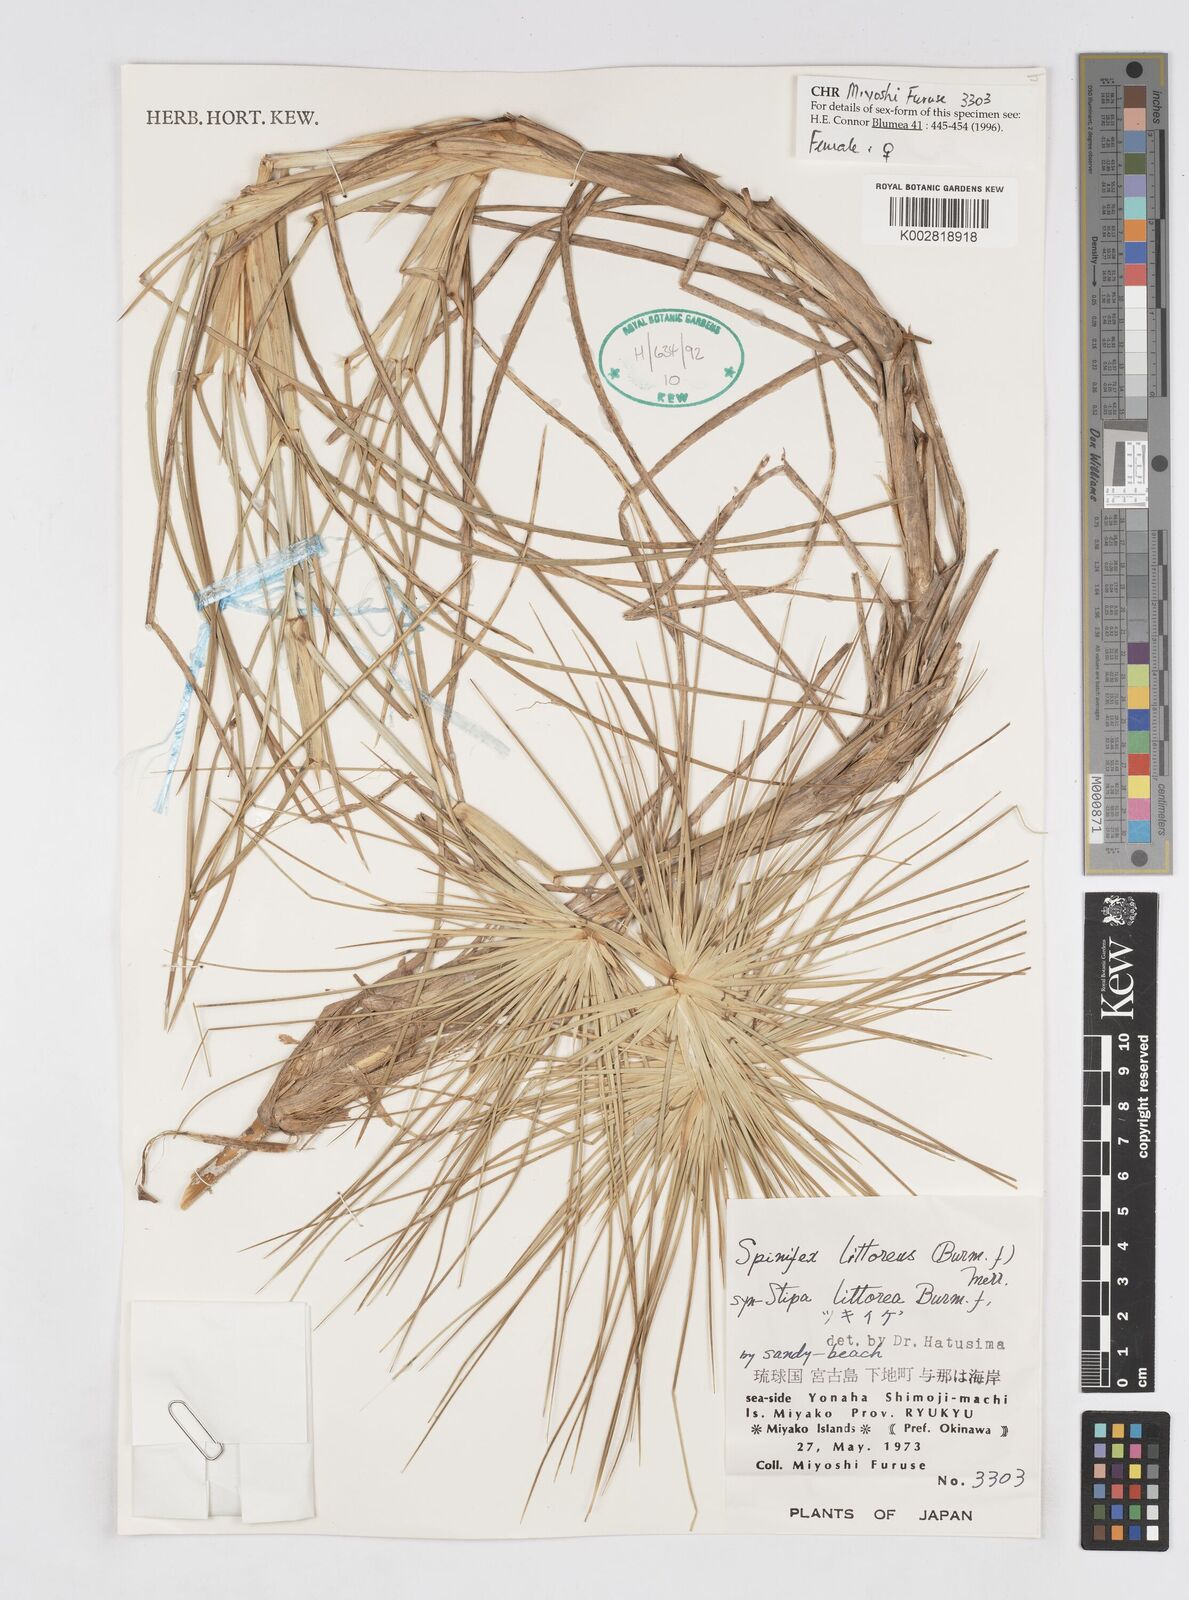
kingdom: Plantae
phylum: Tracheophyta
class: Liliopsida
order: Poales
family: Poaceae
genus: Spinifex
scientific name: Spinifex littoreus
